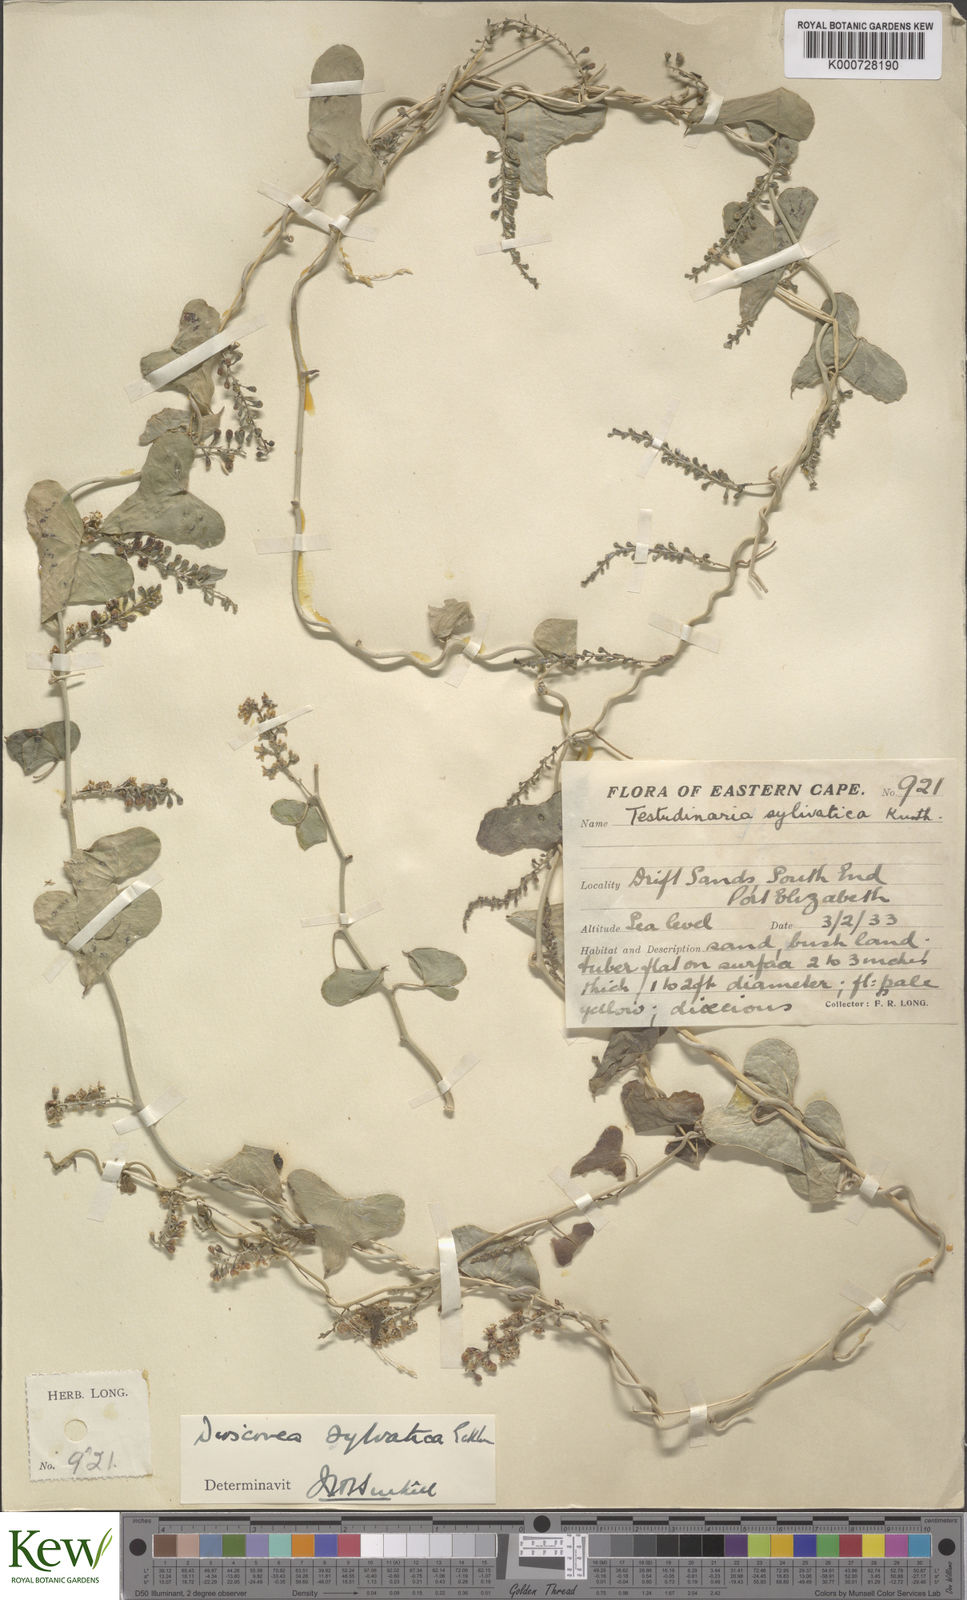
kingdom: Plantae
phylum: Tracheophyta
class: Liliopsida
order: Dioscoreales
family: Dioscoreaceae
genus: Dioscorea
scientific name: Dioscorea sylvatica
